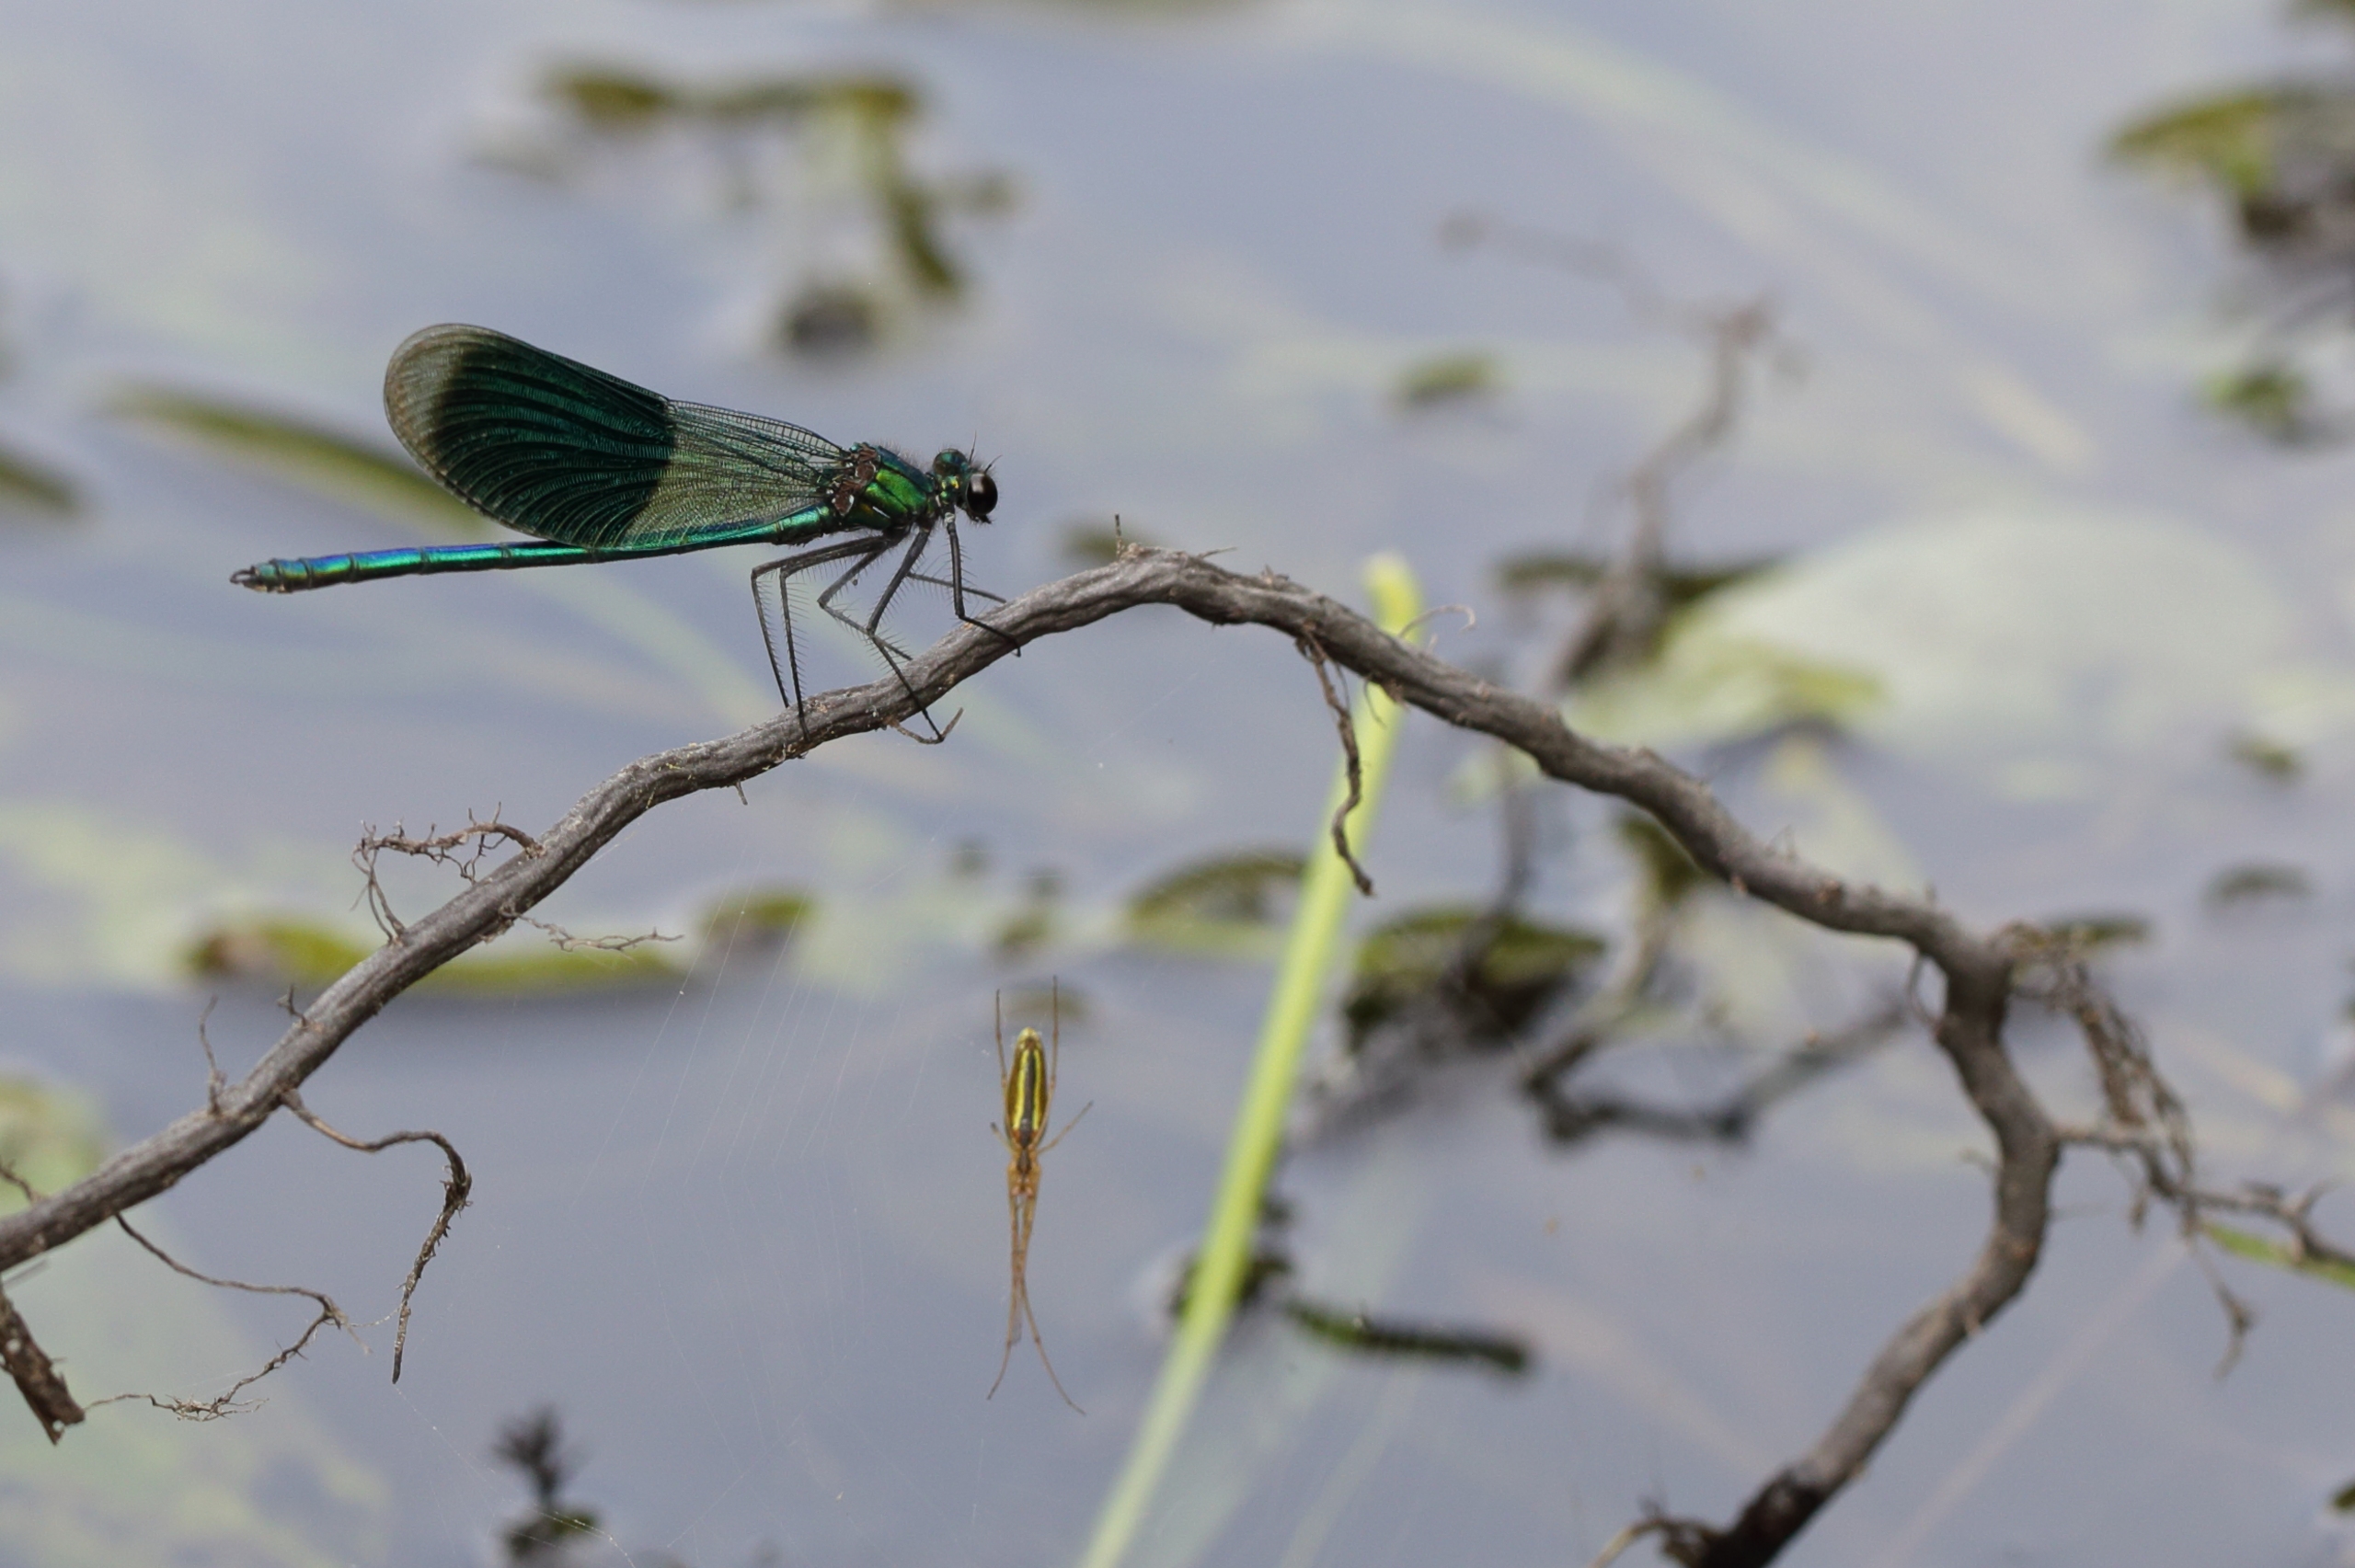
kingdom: Animalia
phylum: Arthropoda
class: Insecta
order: Odonata
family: Calopterygidae
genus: Calopteryx
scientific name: Calopteryx splendens
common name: Blåbåndet pragtvandnymfe
